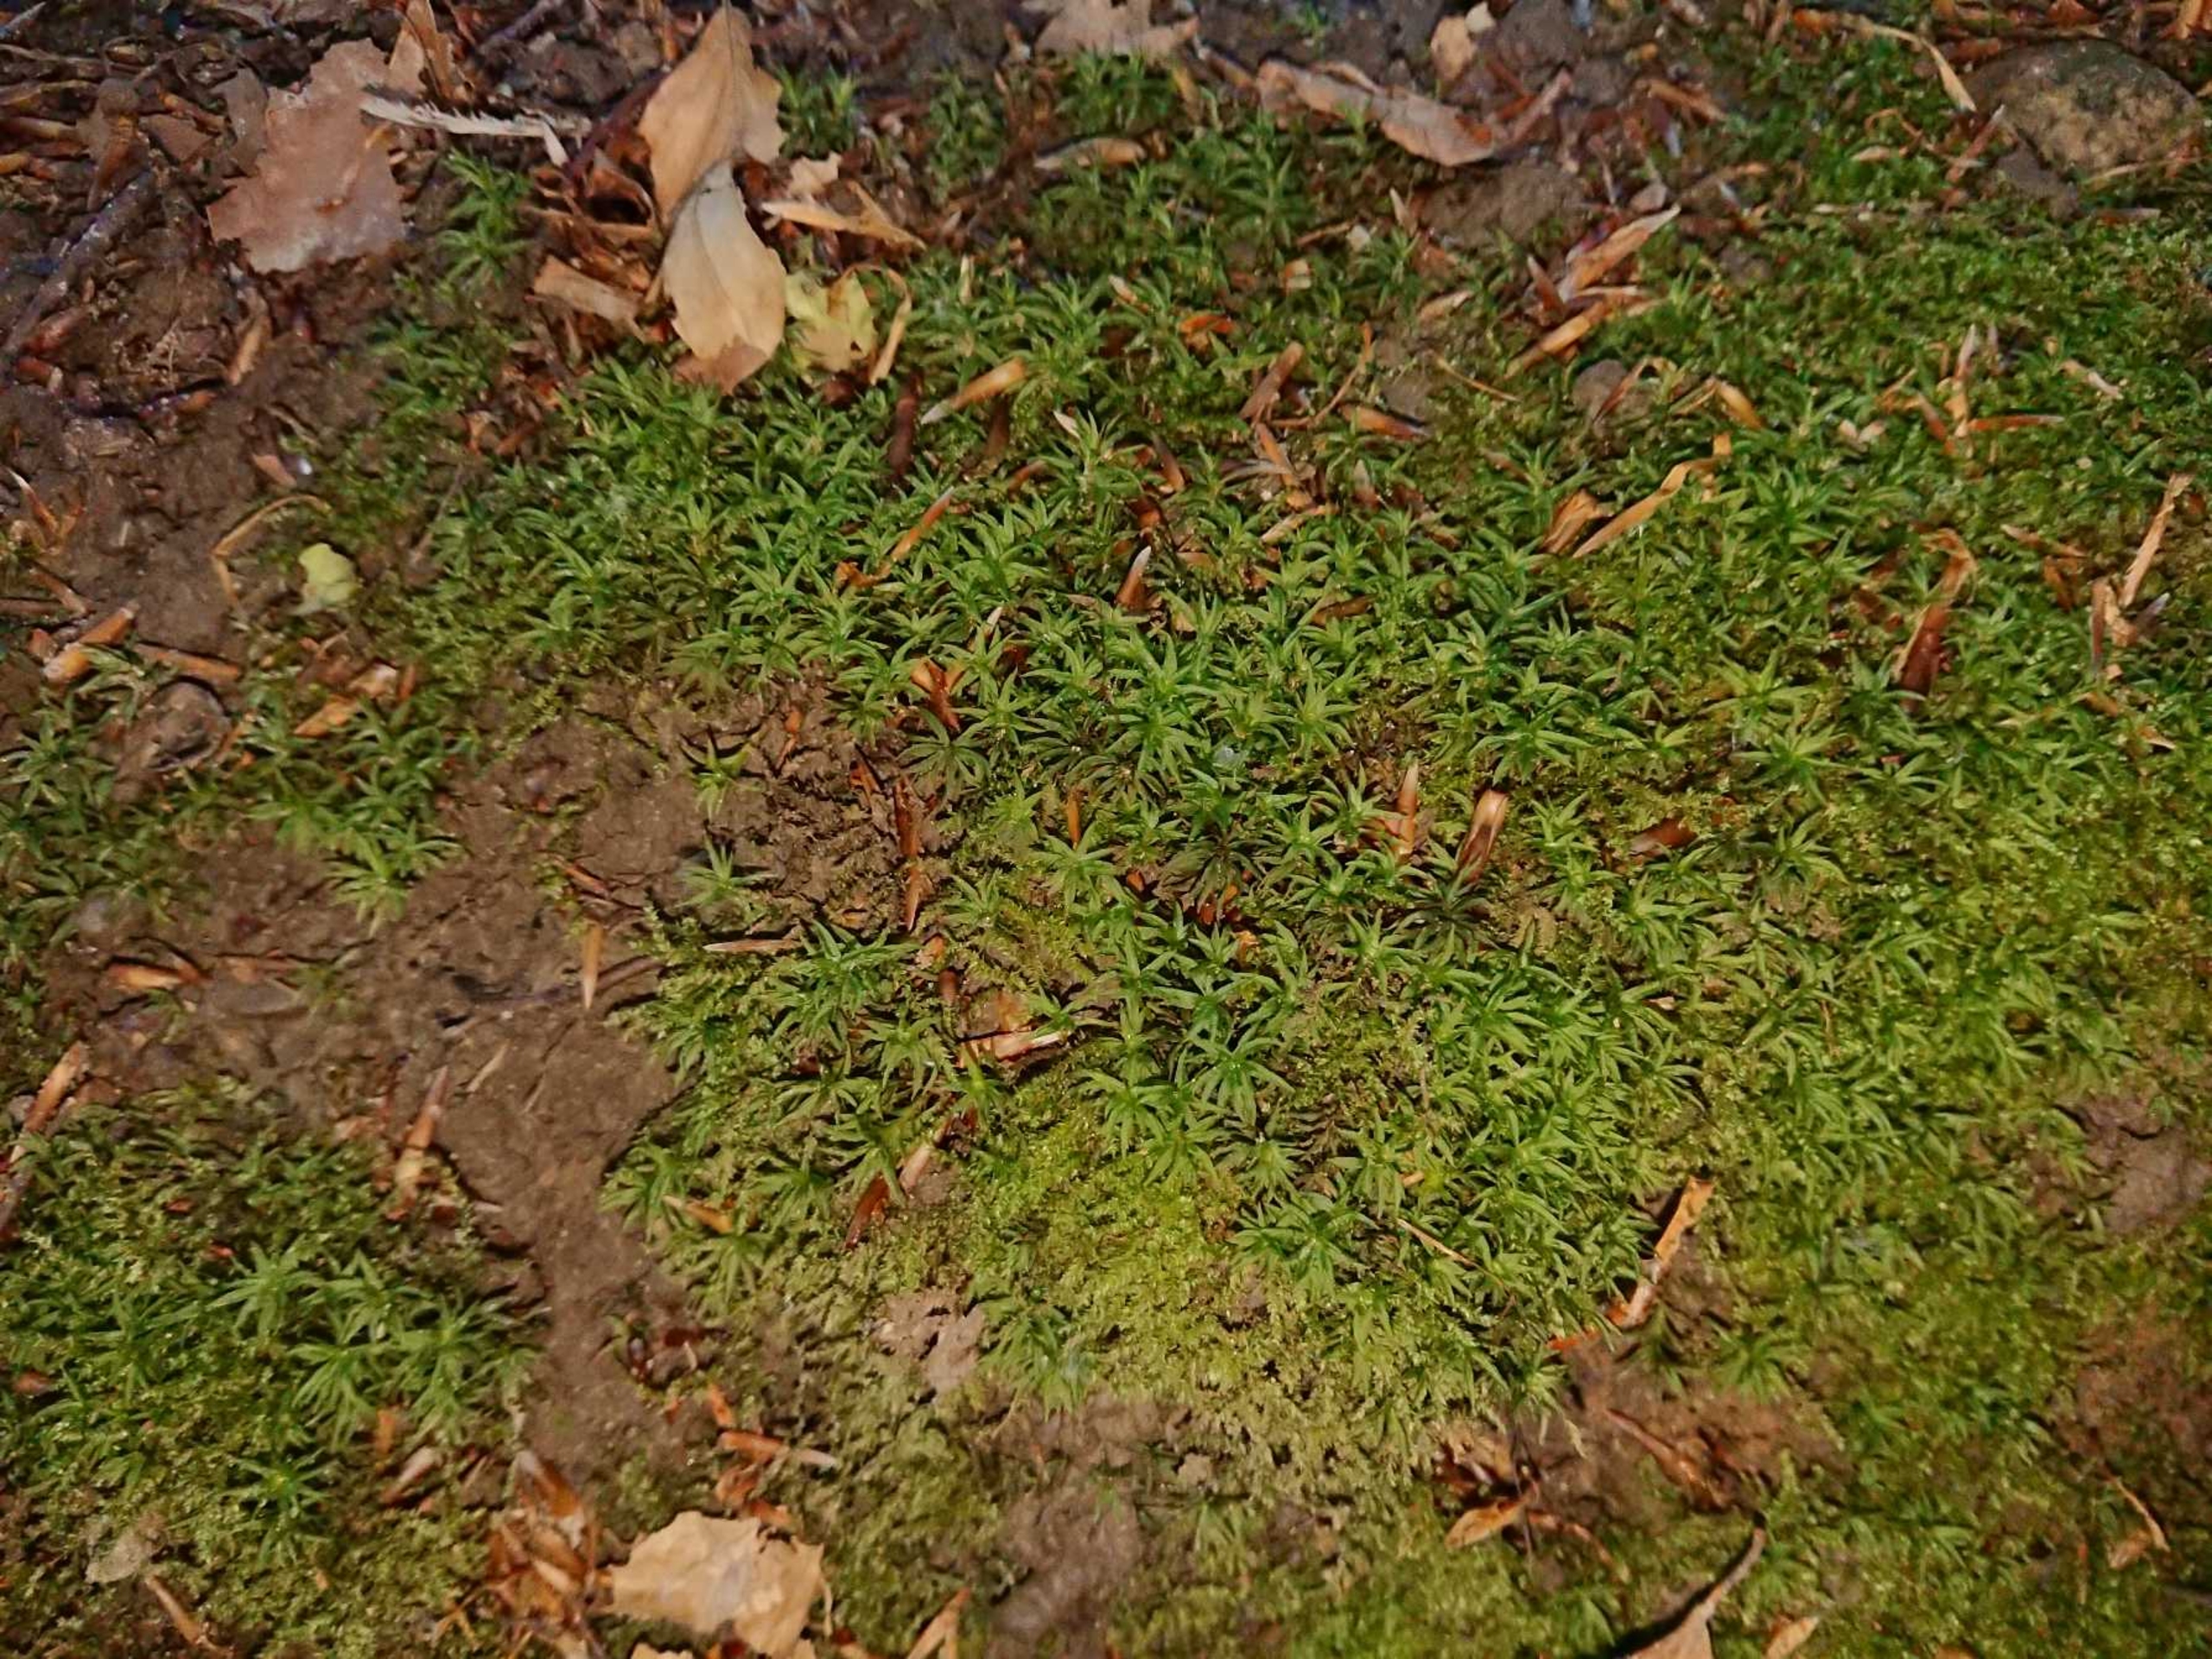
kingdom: Plantae
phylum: Bryophyta
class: Polytrichopsida
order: Polytrichales
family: Polytrichaceae
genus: Atrichum
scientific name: Atrichum undulatum
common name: Bølget katrinemos
